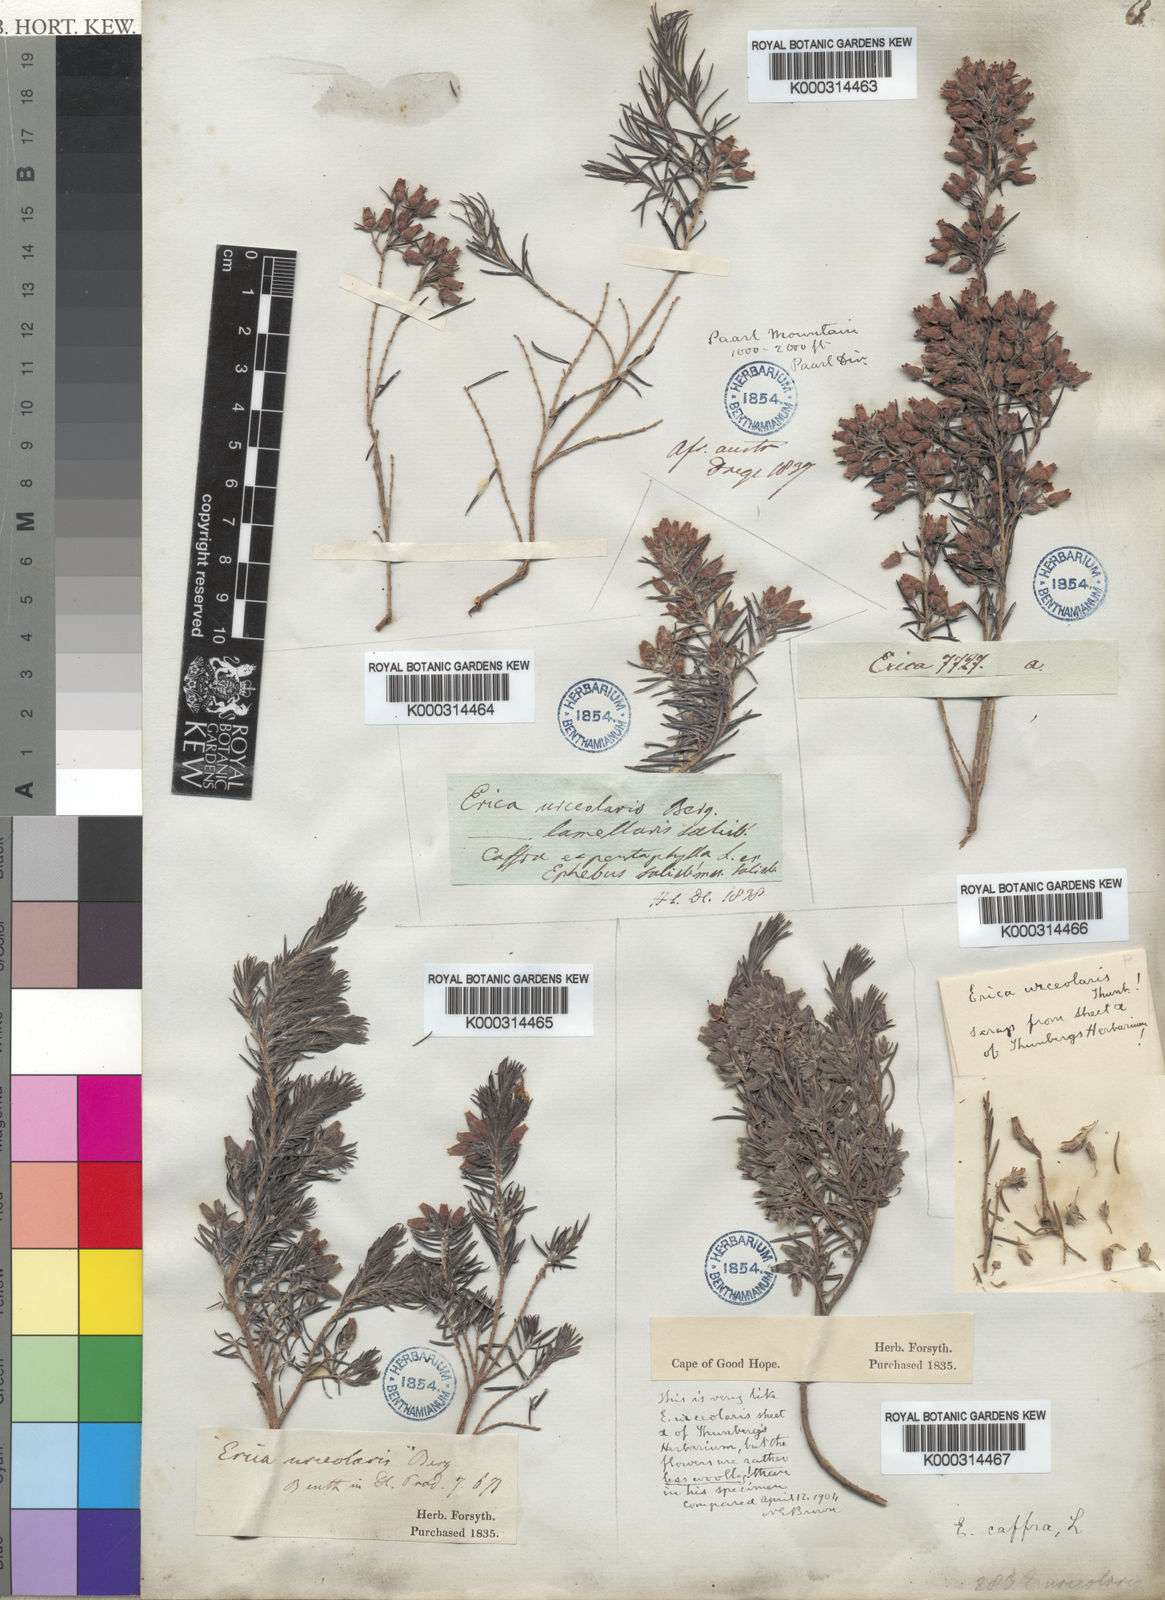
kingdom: Plantae
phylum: Tracheophyta
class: Magnoliopsida
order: Ericales
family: Ericaceae
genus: Erica
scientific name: Erica caffra
